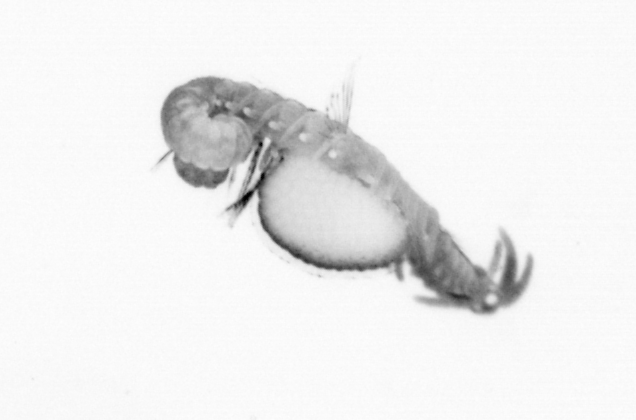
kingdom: Animalia
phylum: Annelida
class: Polychaeta
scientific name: Polychaeta
